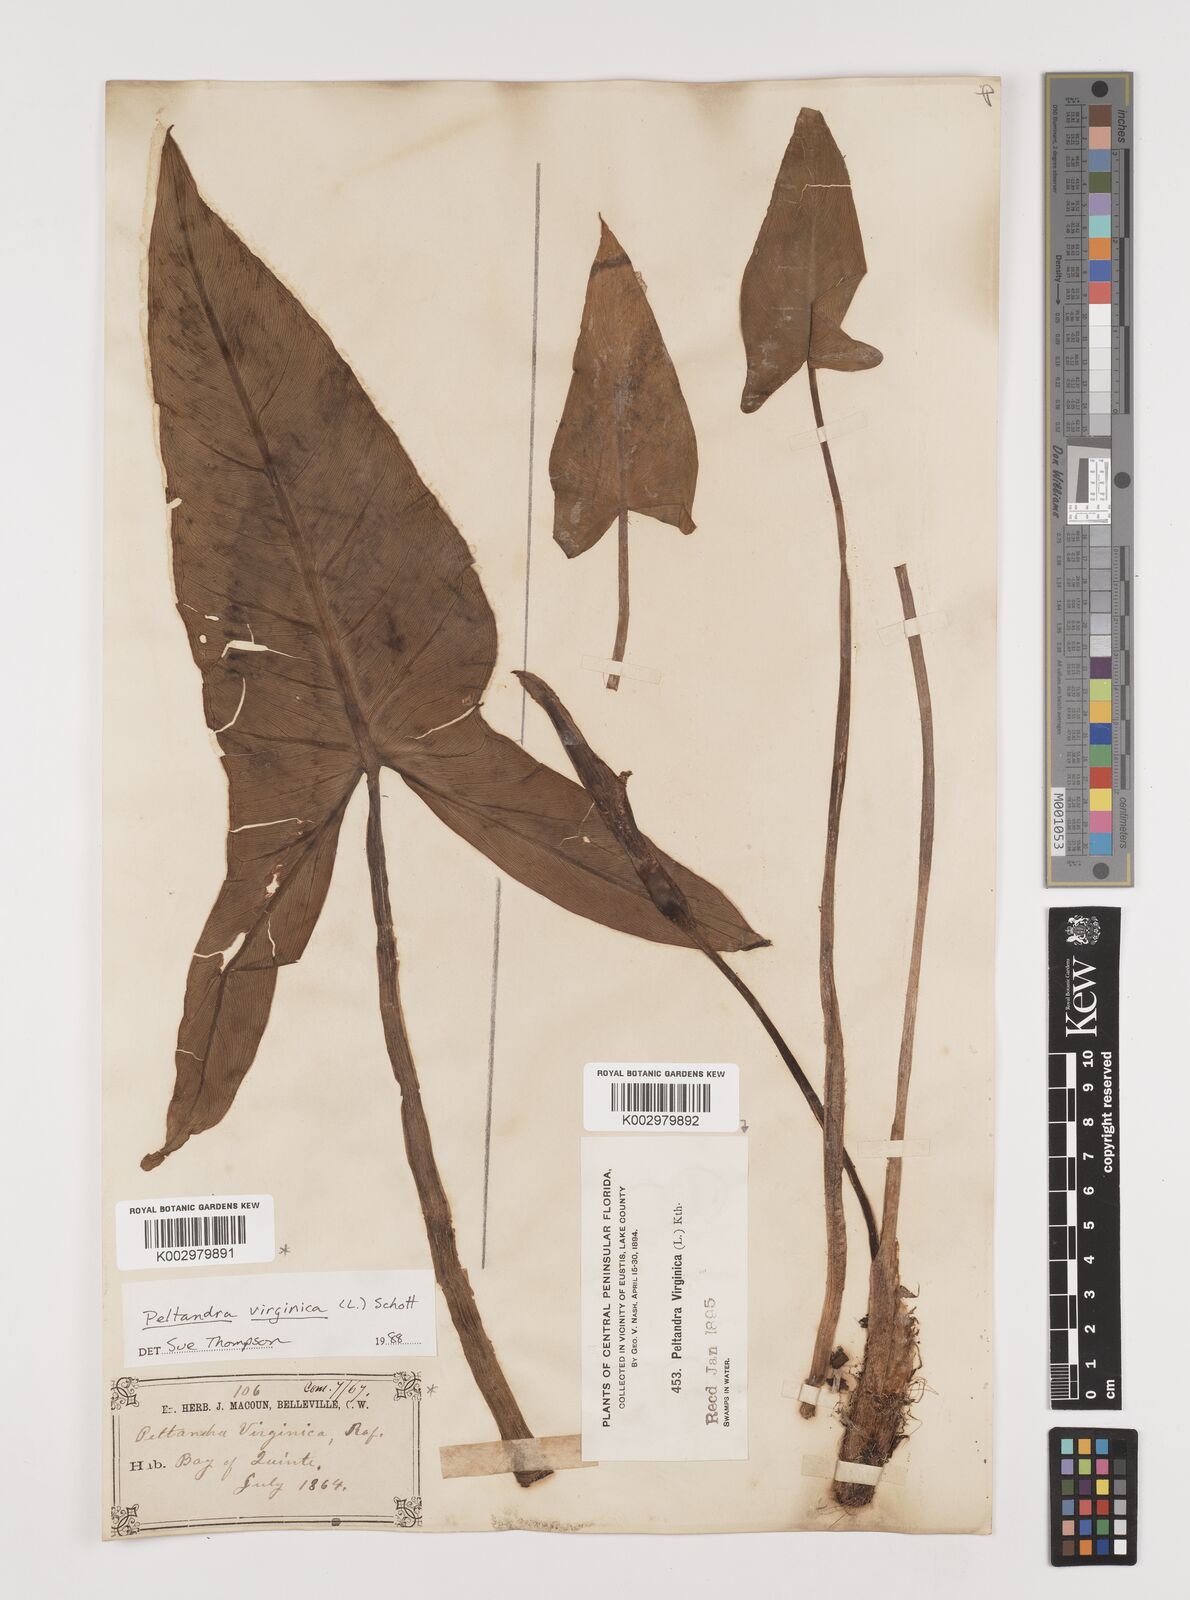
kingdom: Plantae
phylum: Tracheophyta
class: Liliopsida
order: Alismatales
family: Araceae
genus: Peltandra
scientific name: Peltandra virginica
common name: Arrow arum
